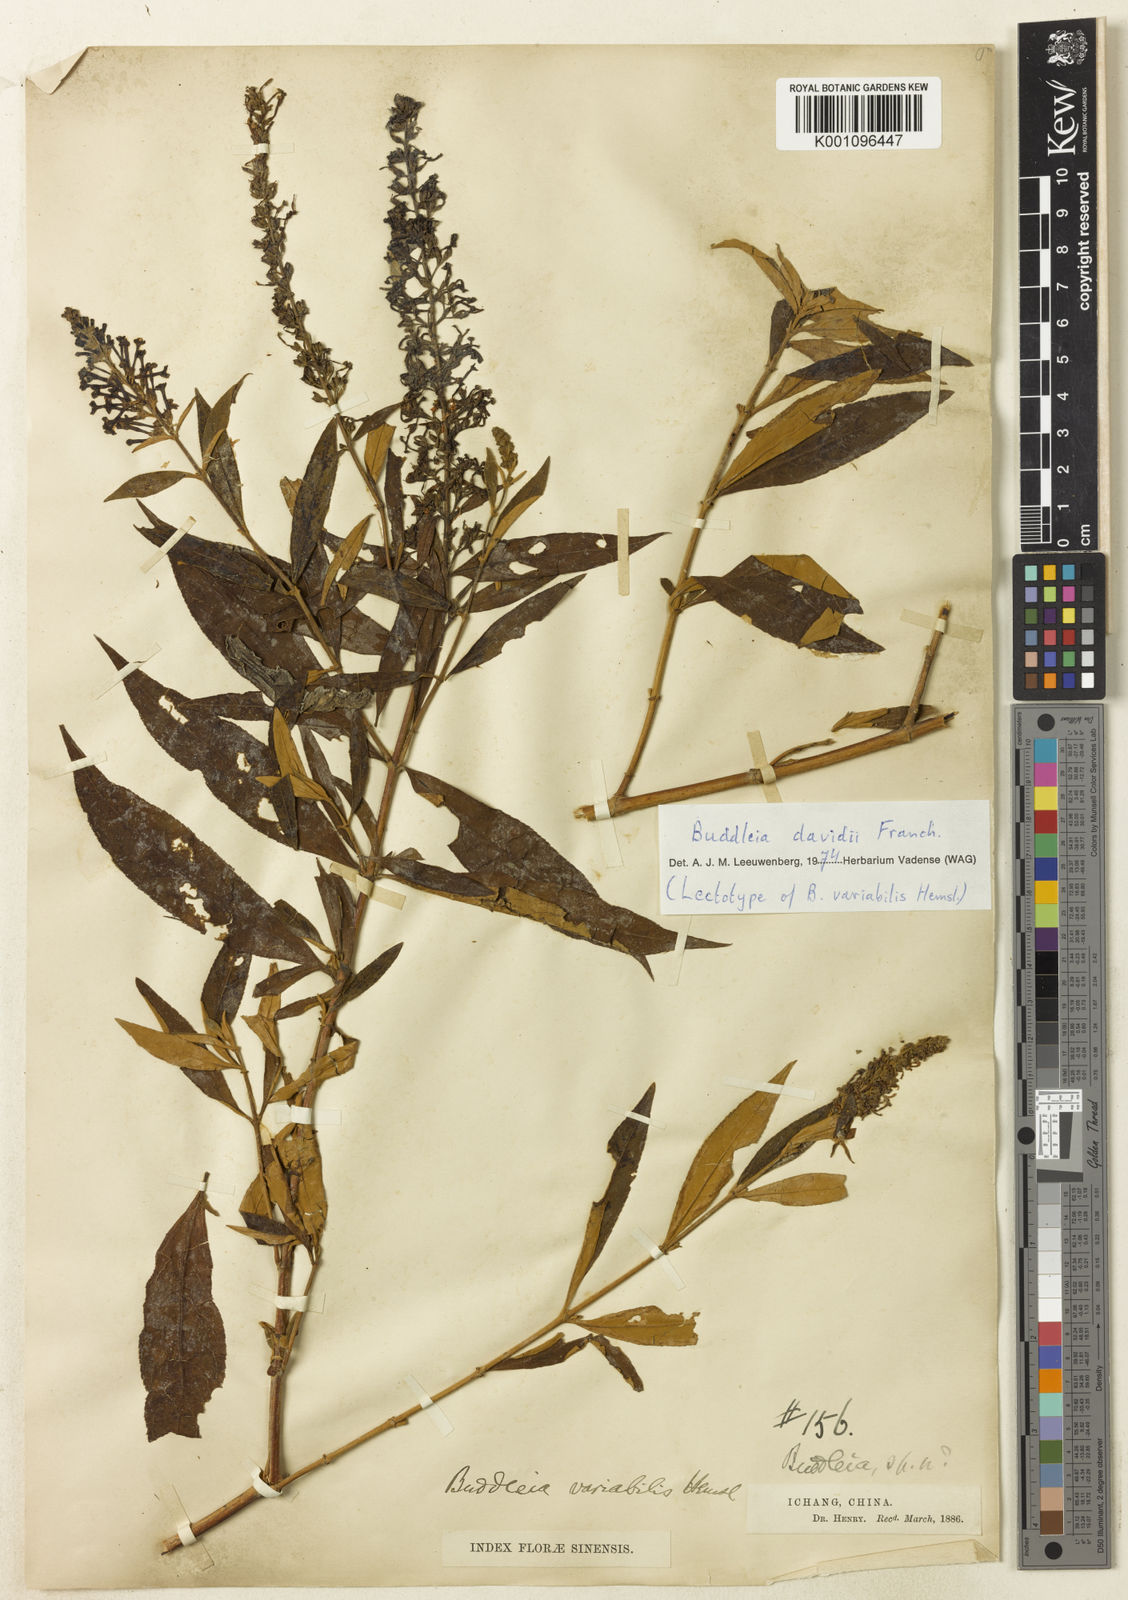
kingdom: Plantae
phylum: Tracheophyta
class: Magnoliopsida
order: Lamiales
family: Scrophulariaceae
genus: Buddleja
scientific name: Buddleja davidii
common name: Butterfly-bush
